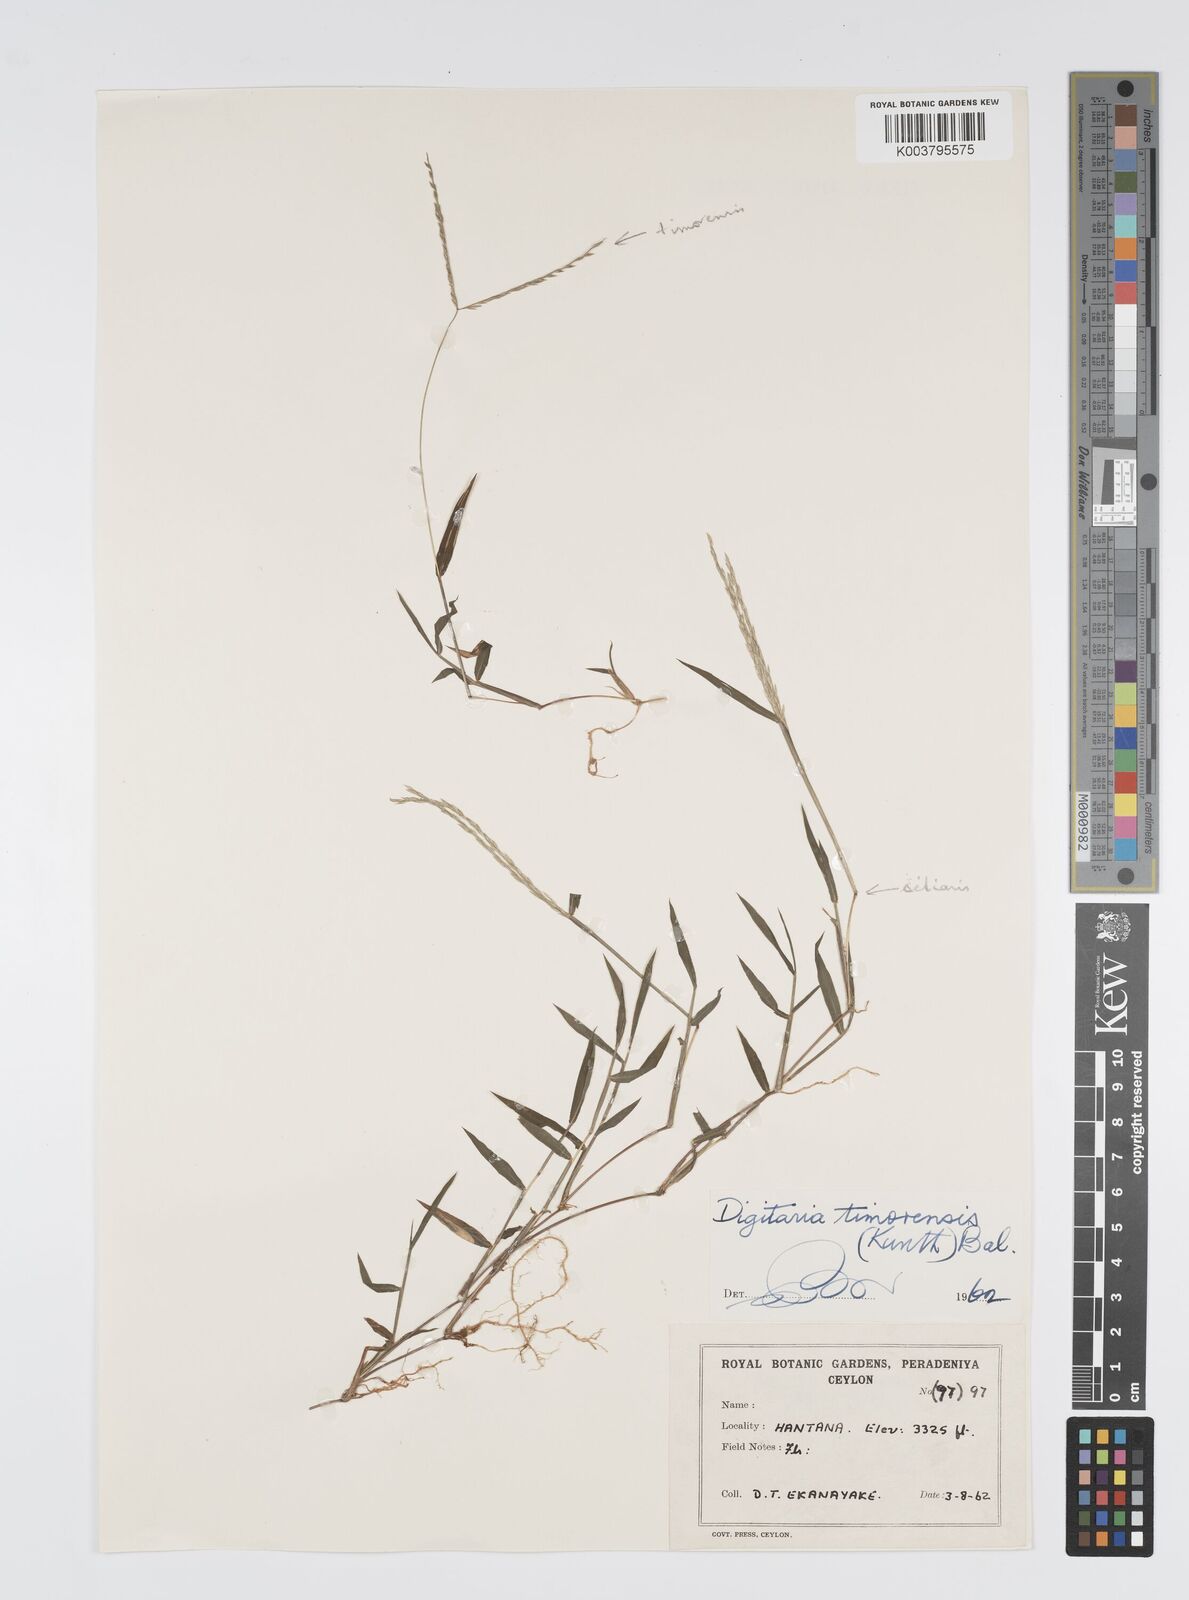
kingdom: Plantae
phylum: Tracheophyta
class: Liliopsida
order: Poales
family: Poaceae
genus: Digitaria
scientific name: Digitaria radicosa
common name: Trailing crabgrass
